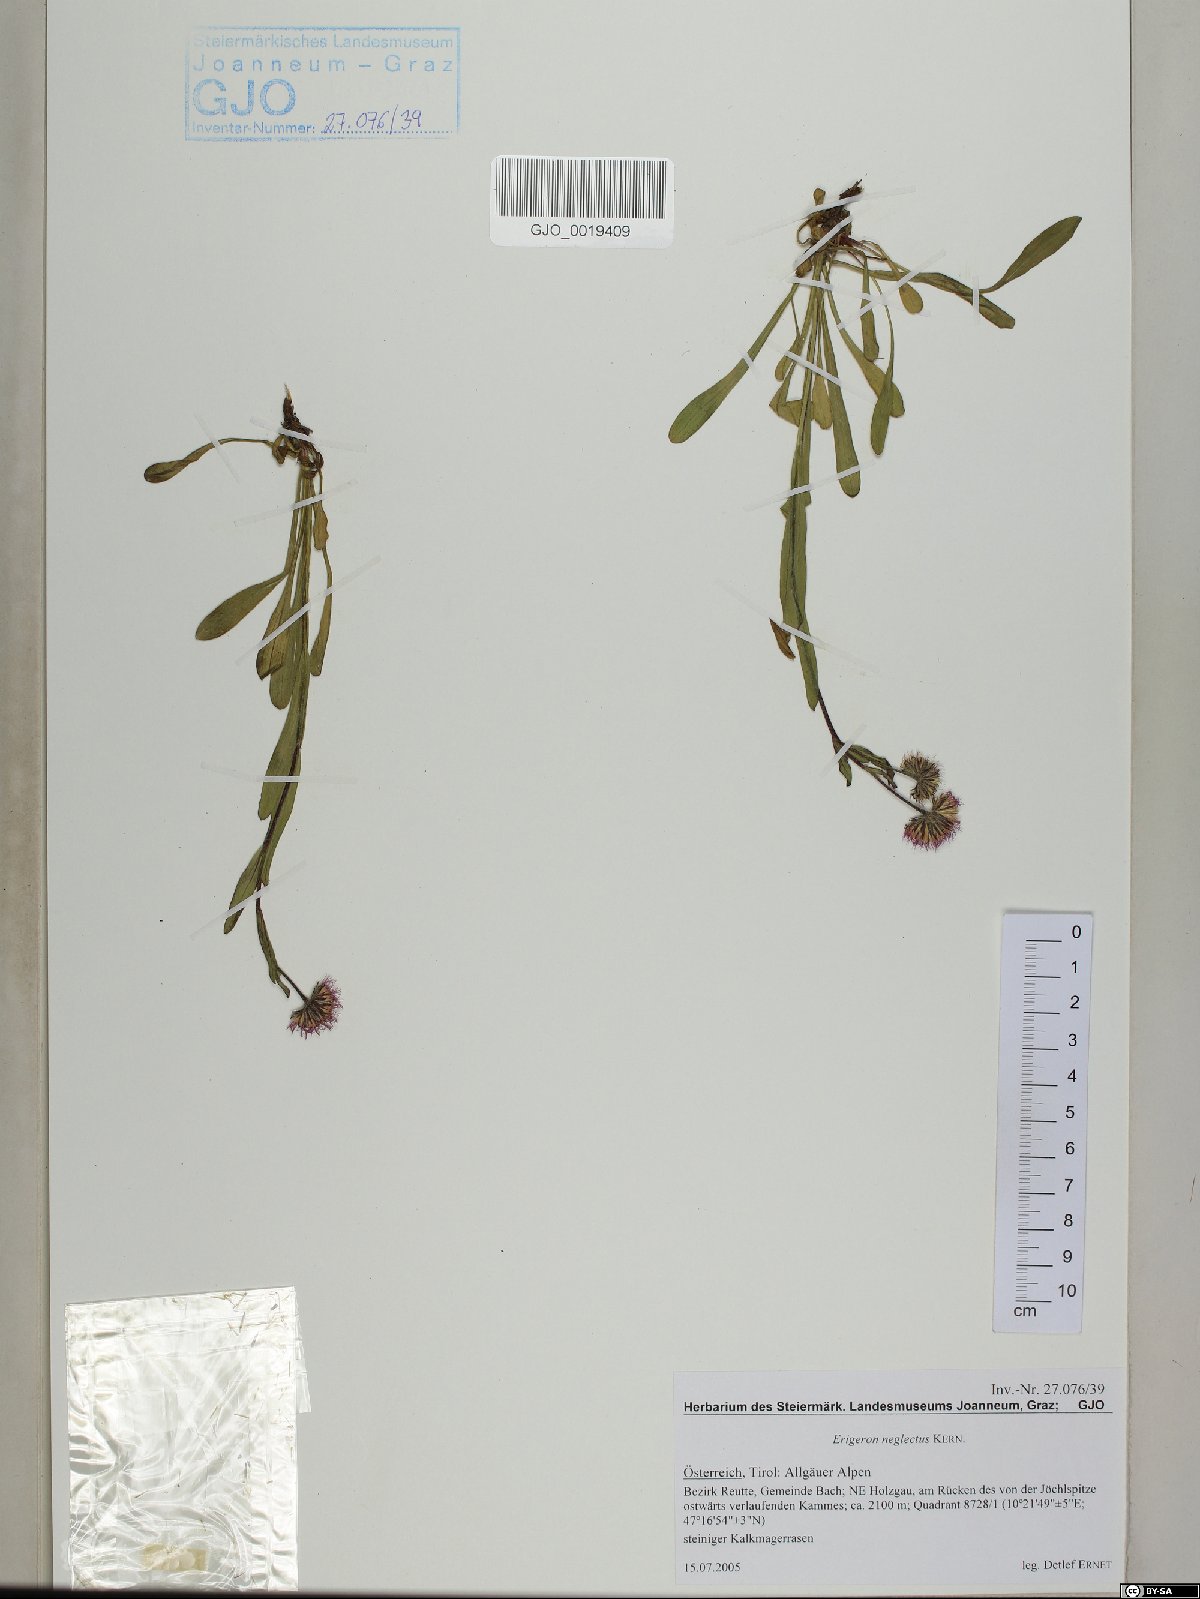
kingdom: Plantae
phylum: Tracheophyta
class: Magnoliopsida
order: Asterales
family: Asteraceae
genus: Erigeron
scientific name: Erigeron neglectus
